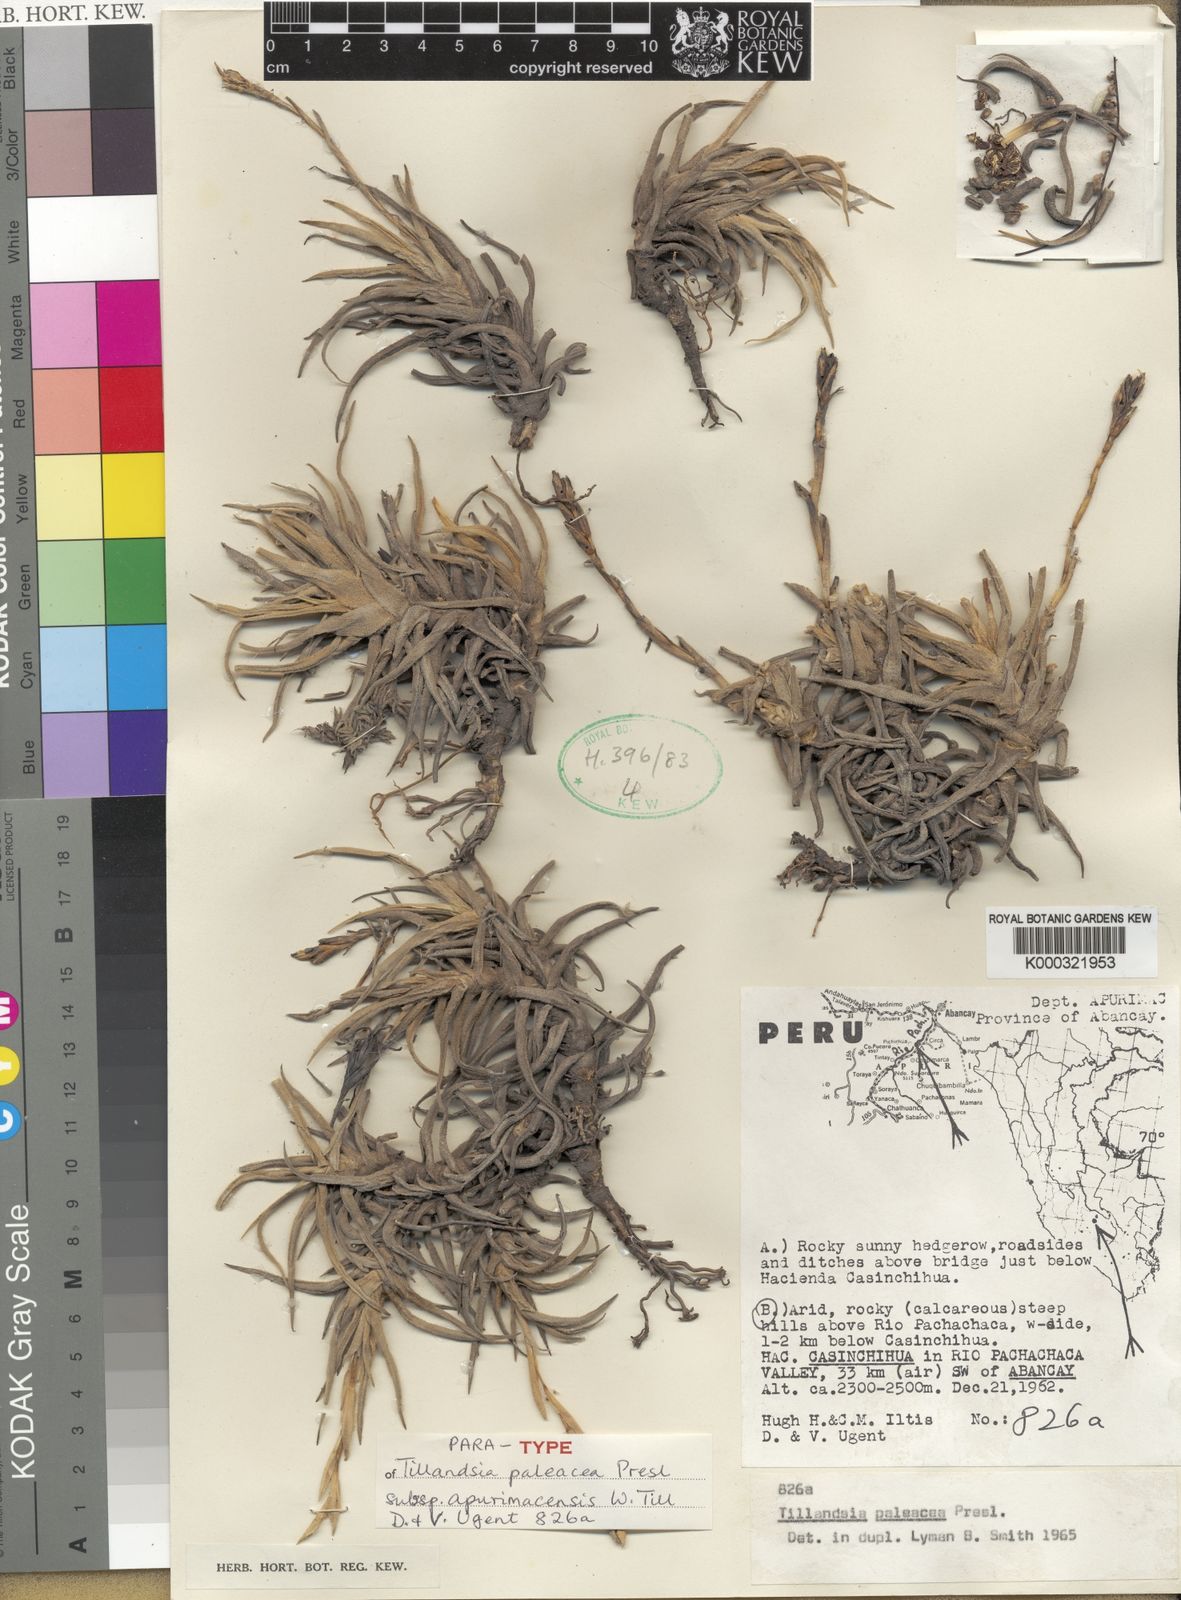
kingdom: Plantae
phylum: Tracheophyta
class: Liliopsida
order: Poales
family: Bromeliaceae
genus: Tillandsia
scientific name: Tillandsia paleacea
